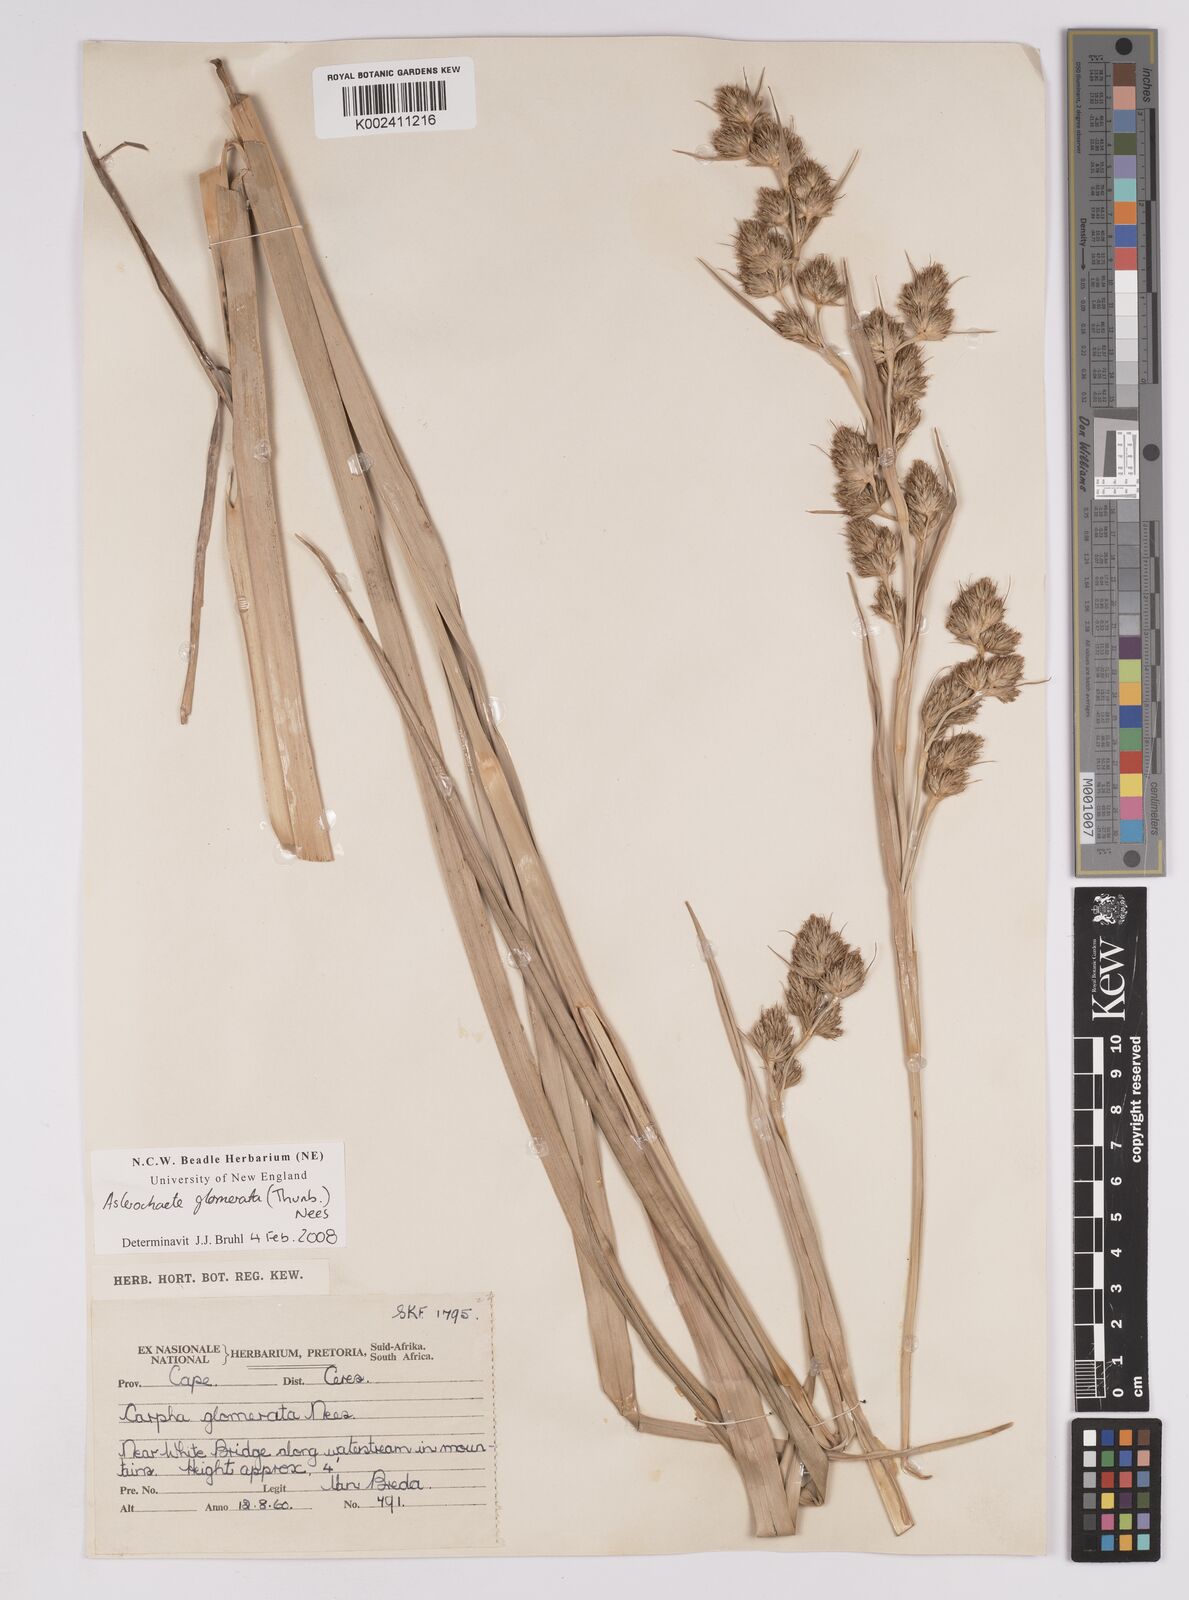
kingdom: Plantae
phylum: Tracheophyta
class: Liliopsida
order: Poales
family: Cyperaceae
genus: Carpha
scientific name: Carpha glomerata
